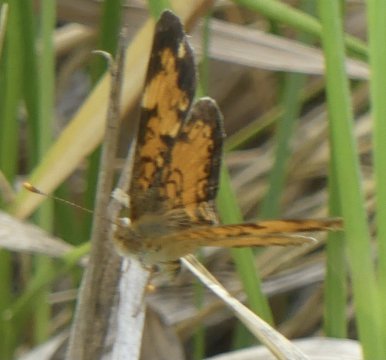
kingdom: Animalia
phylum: Arthropoda
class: Insecta
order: Lepidoptera
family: Nymphalidae
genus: Phyciodes
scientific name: Phyciodes
